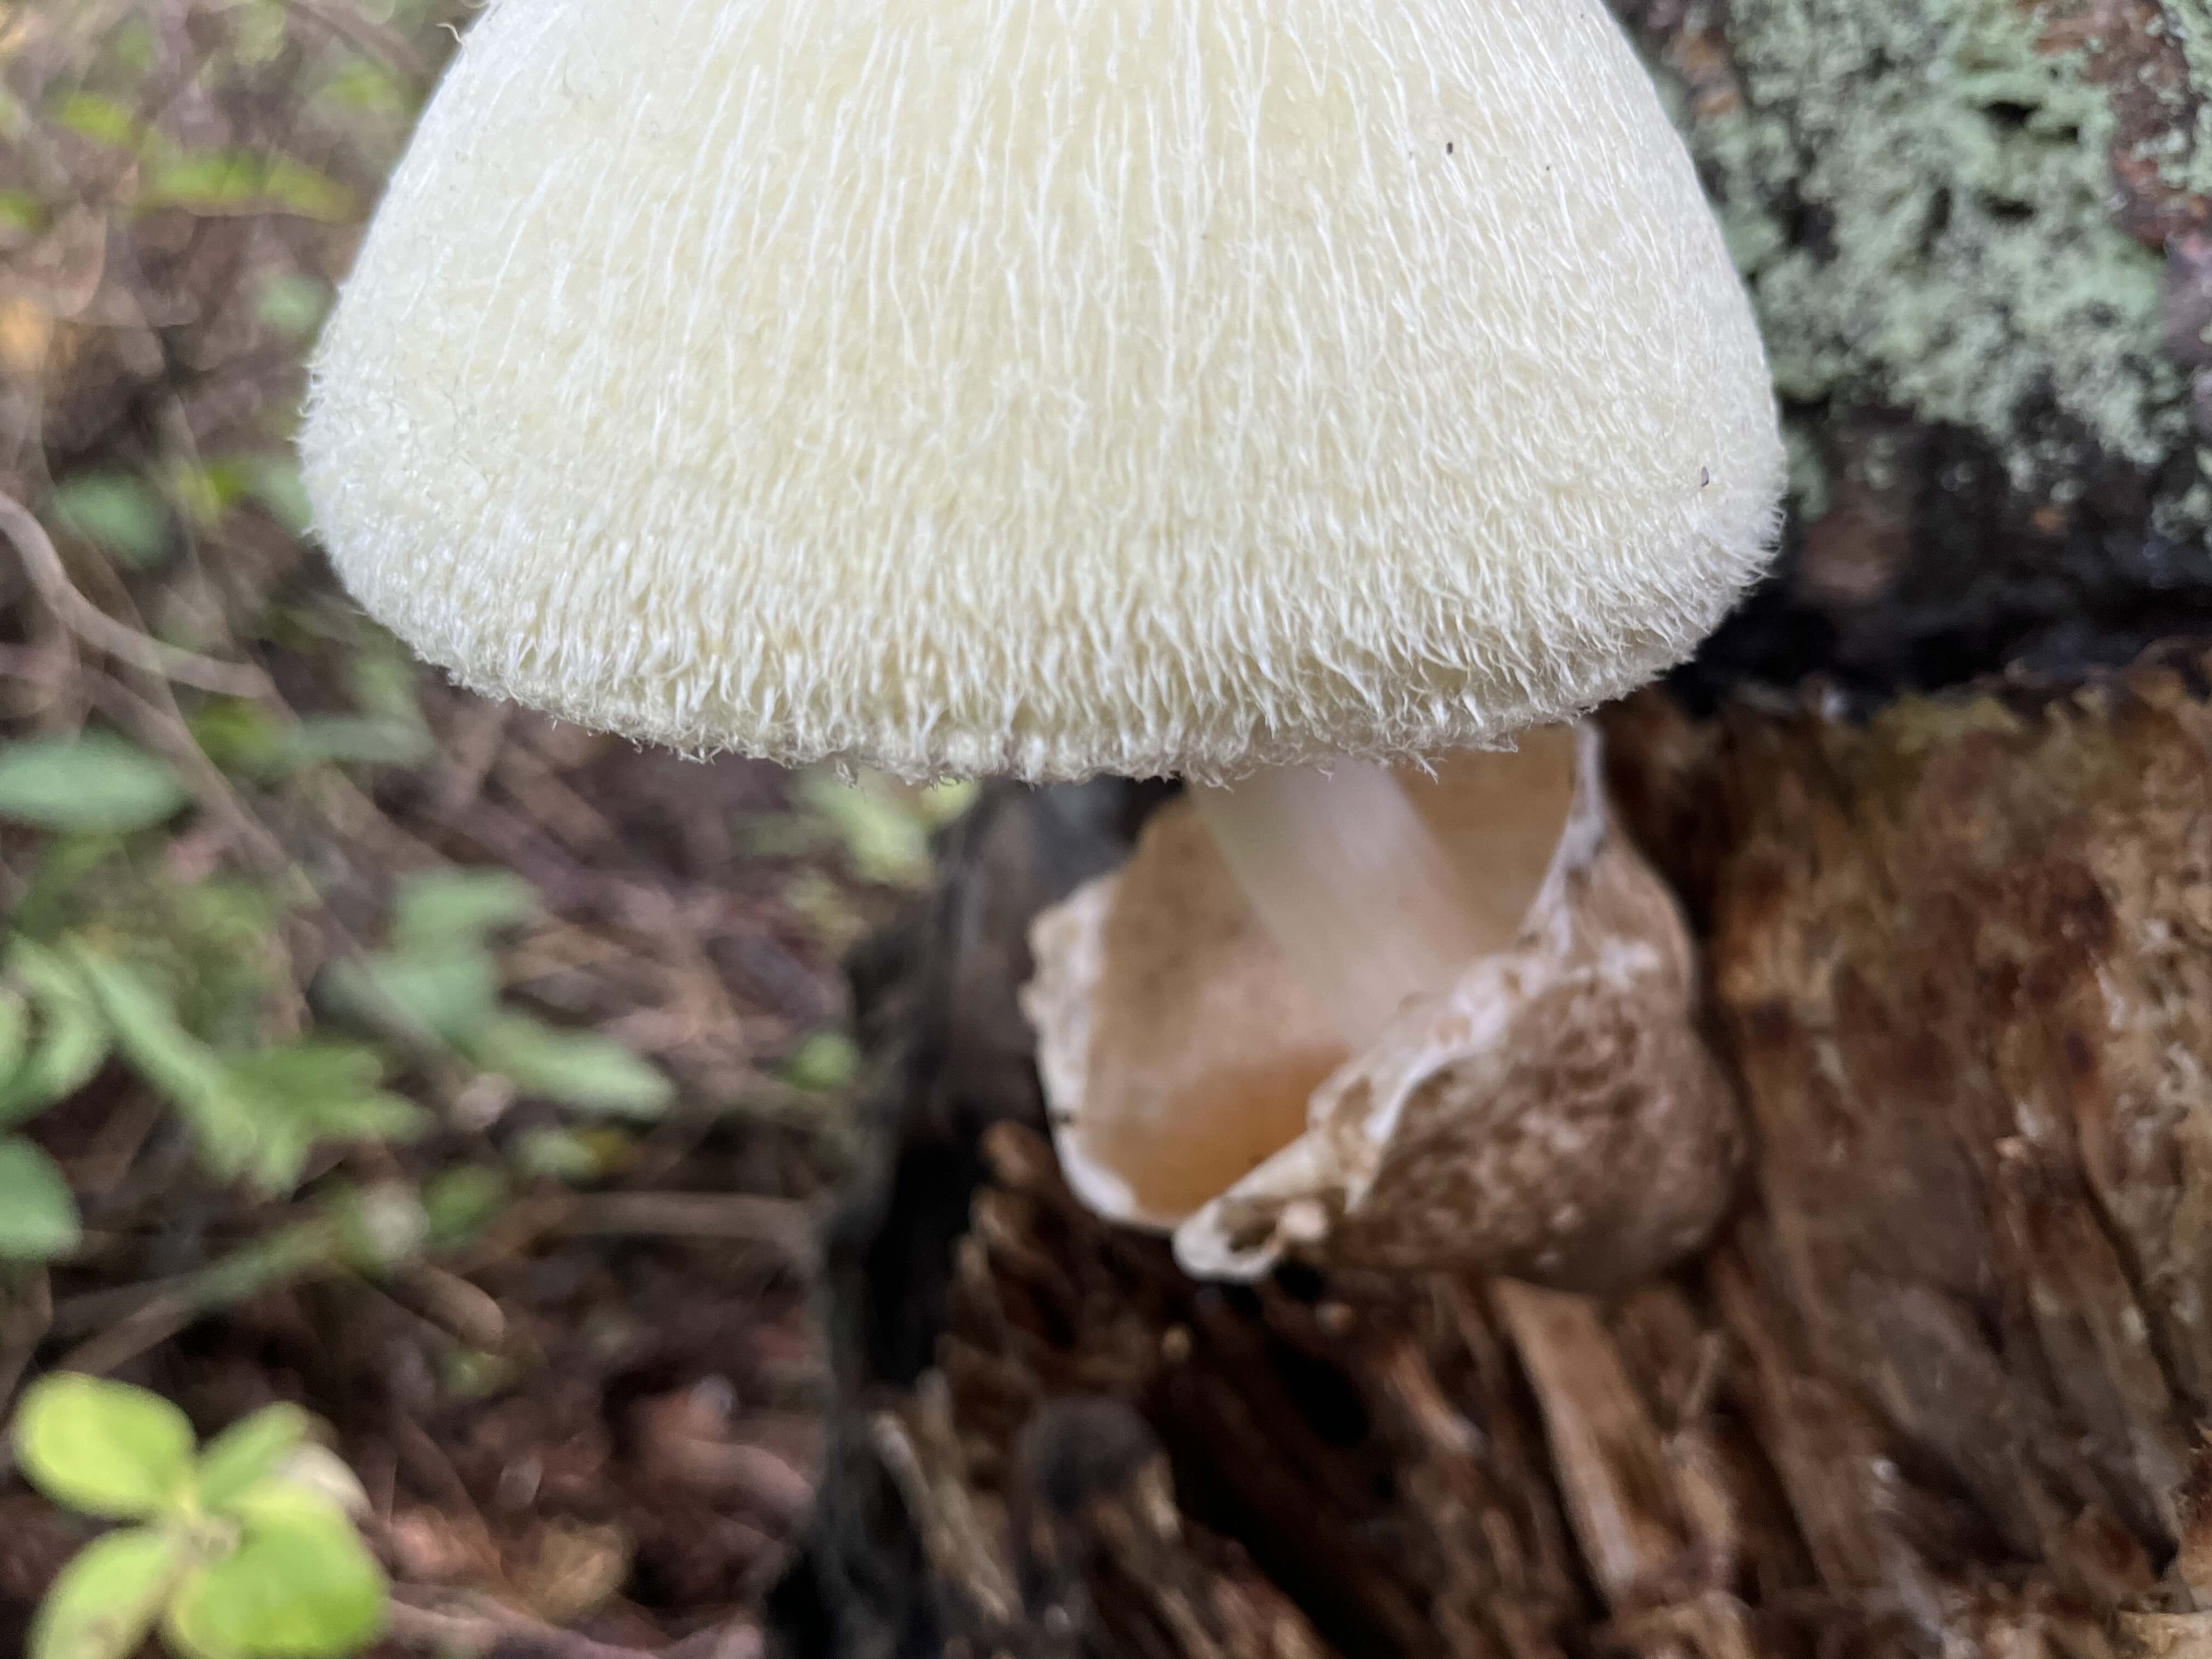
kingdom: Fungi
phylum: Basidiomycota
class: Agaricomycetes
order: Agaricales
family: Pluteaceae
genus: Volvariella
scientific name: Volvariella bombycina
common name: silkehåret posesvamp
